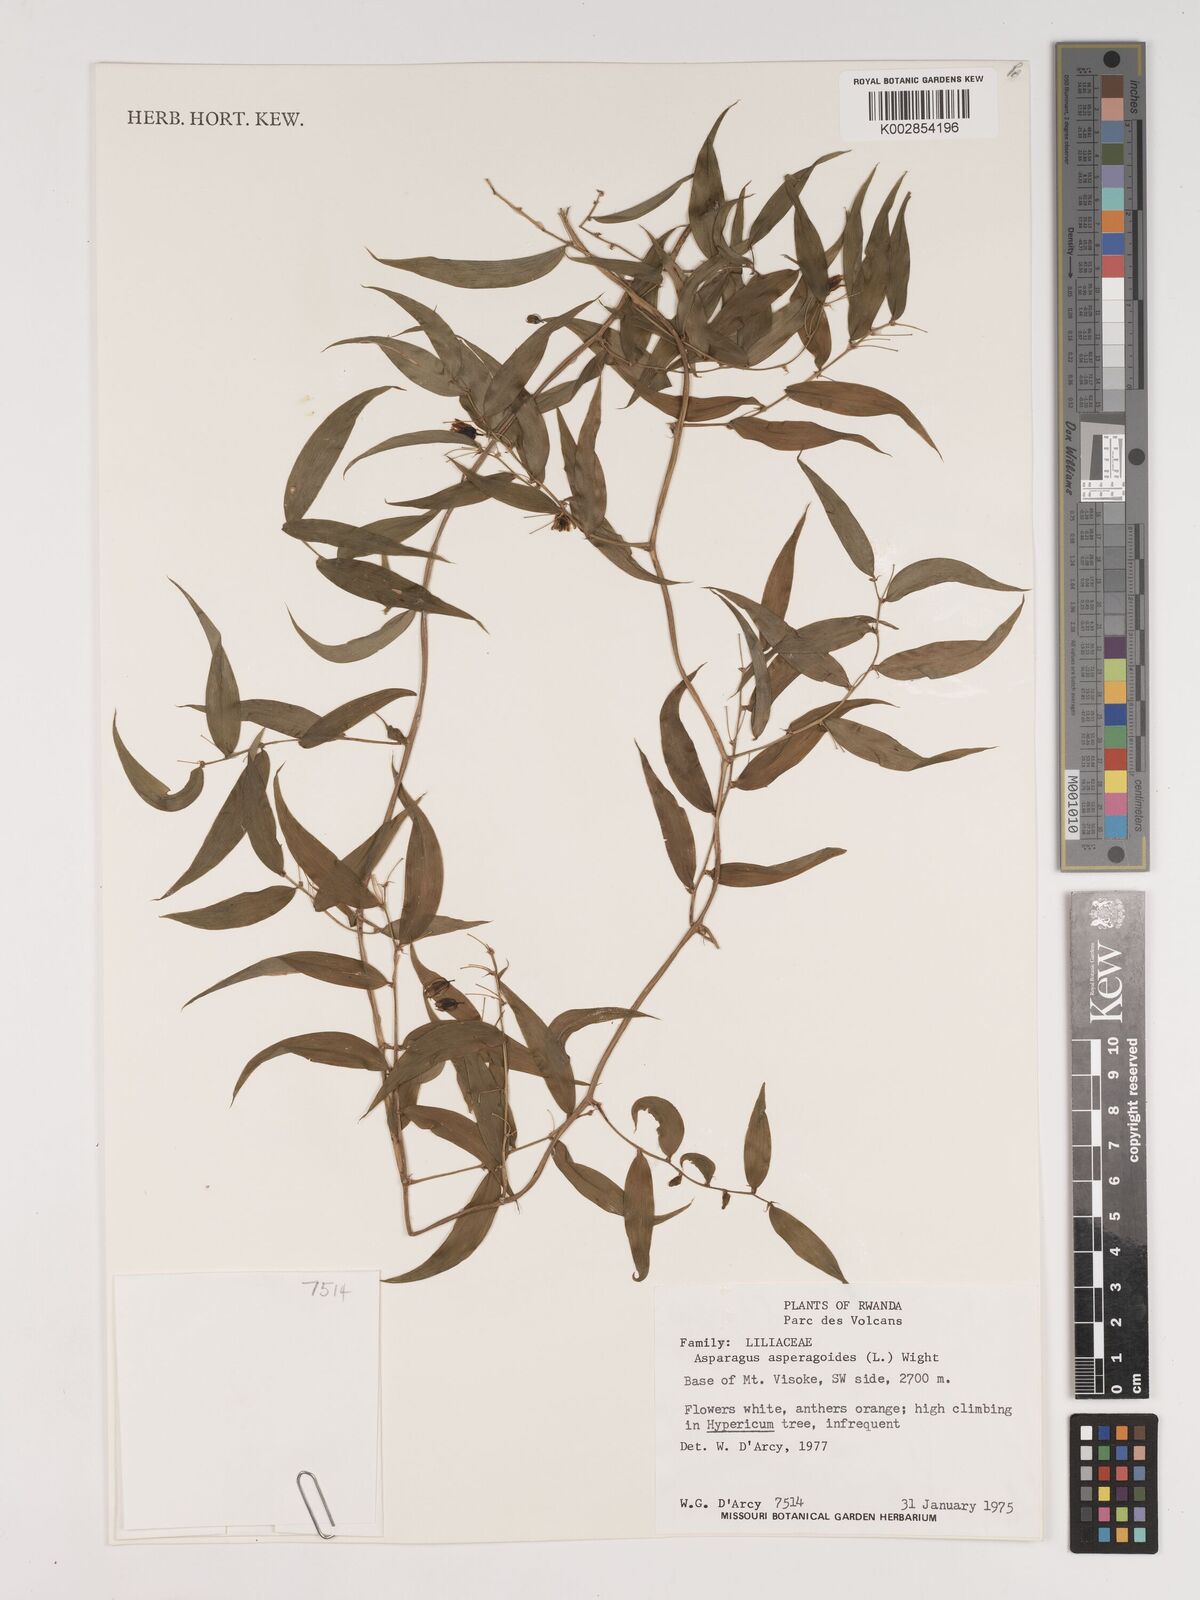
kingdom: Plantae
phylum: Tracheophyta
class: Liliopsida
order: Asparagales
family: Asparagaceae
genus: Asparagus
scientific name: Asparagus asparagoides
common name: African asparagus fern
